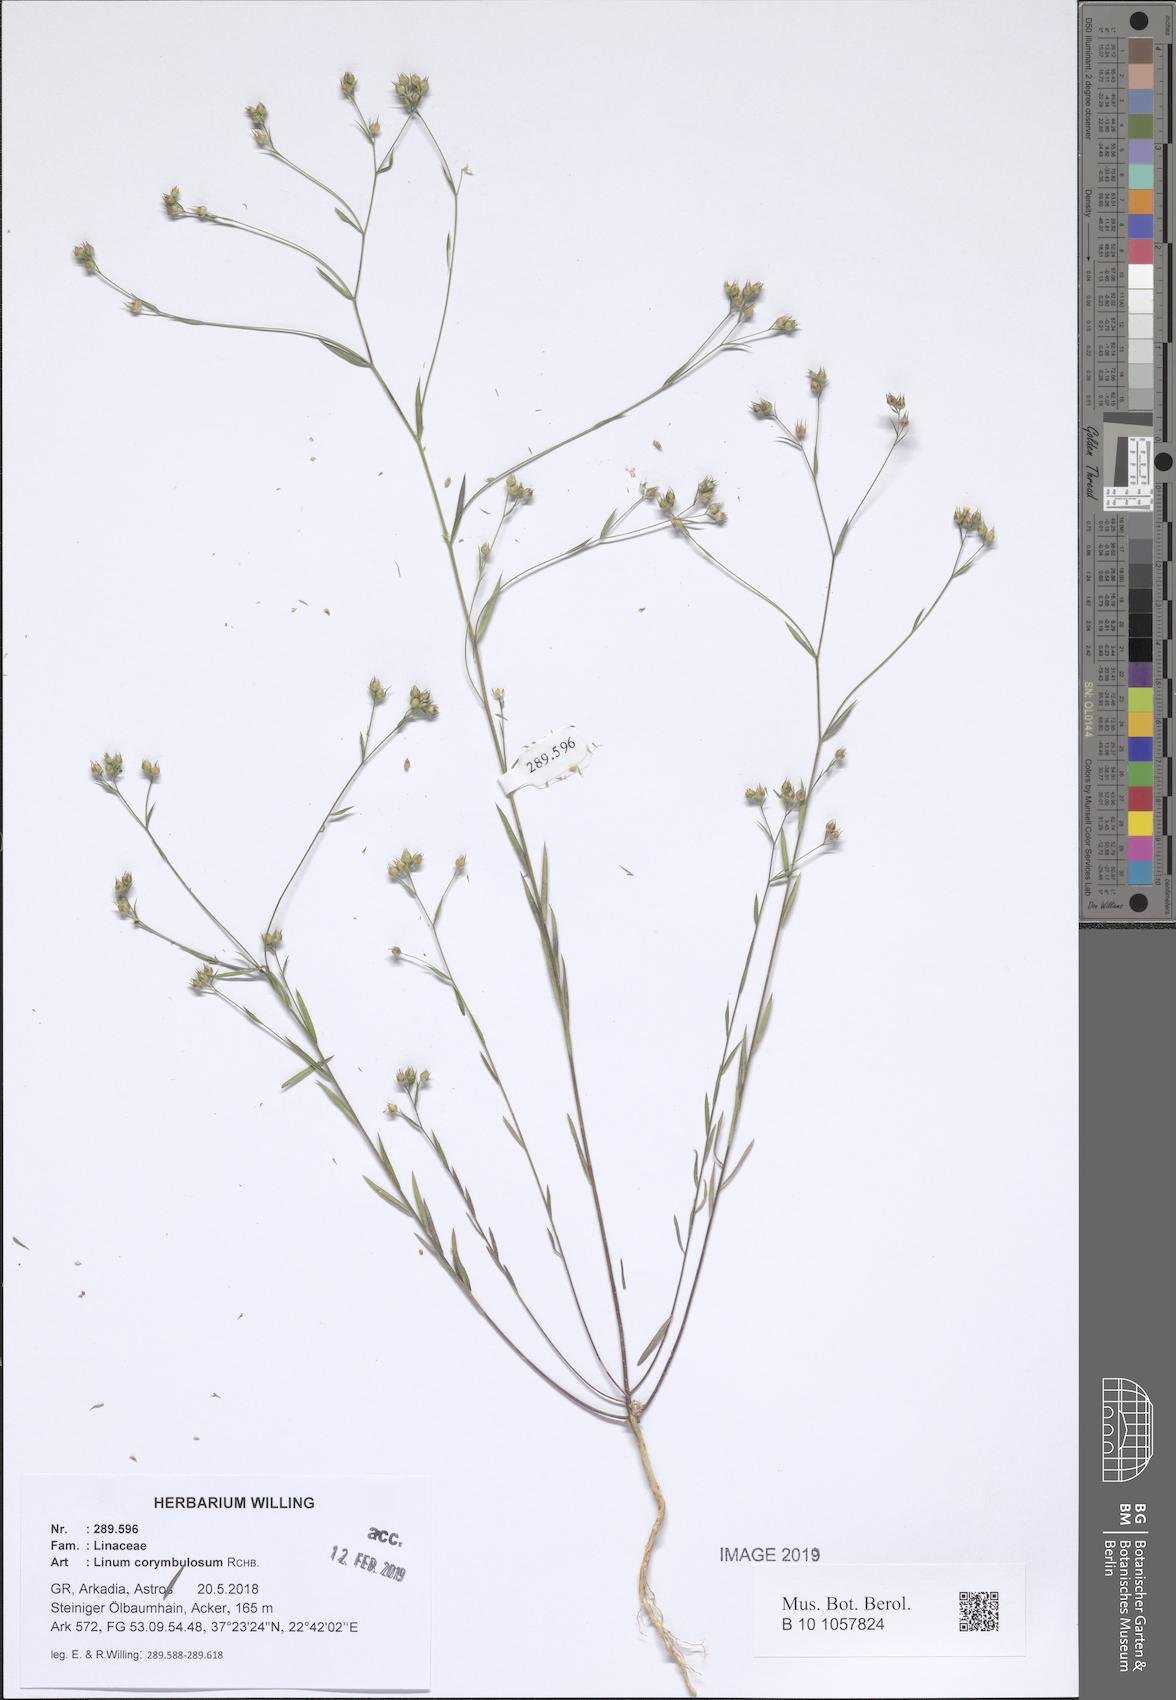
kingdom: Plantae
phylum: Tracheophyta
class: Magnoliopsida
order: Malpighiales
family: Linaceae
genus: Linum
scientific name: Linum corymbulosum
